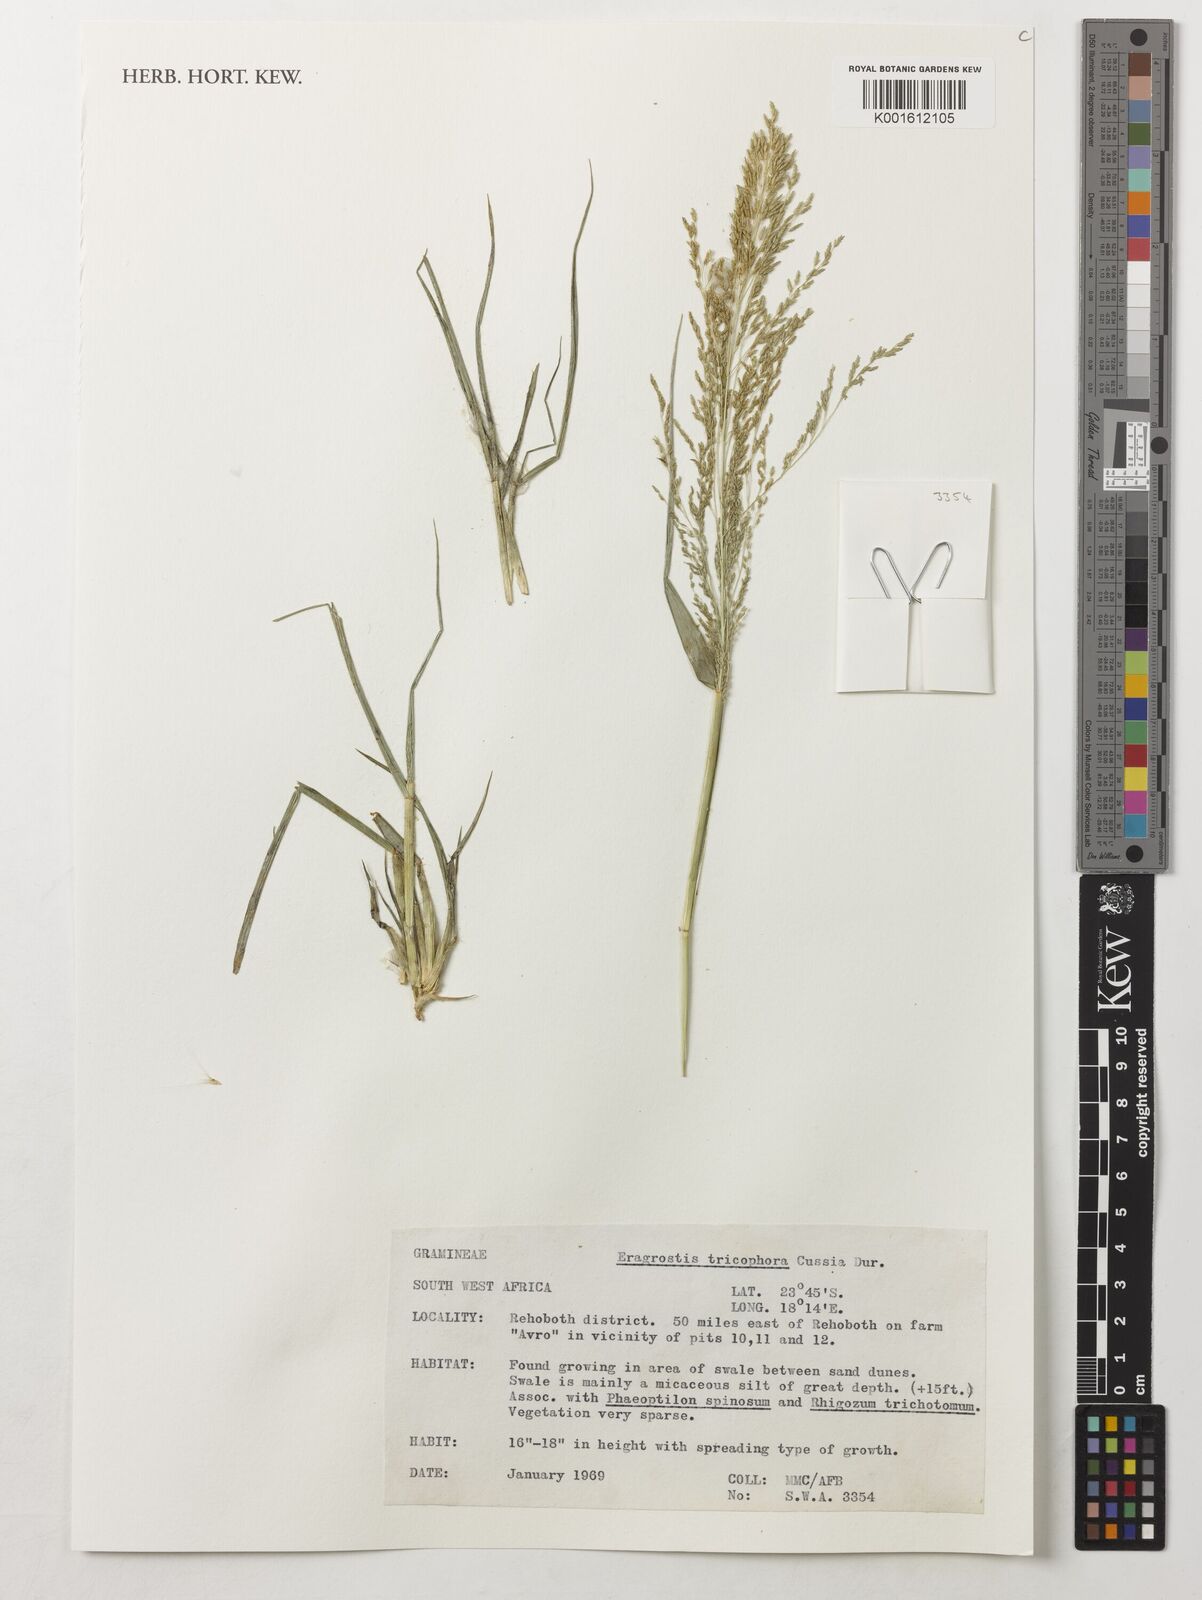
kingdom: Plantae
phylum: Tracheophyta
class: Liliopsida
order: Poales
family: Poaceae
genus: Eragrostis
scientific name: Eragrostis cylindriflora
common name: Cylinderflower lovegrass
